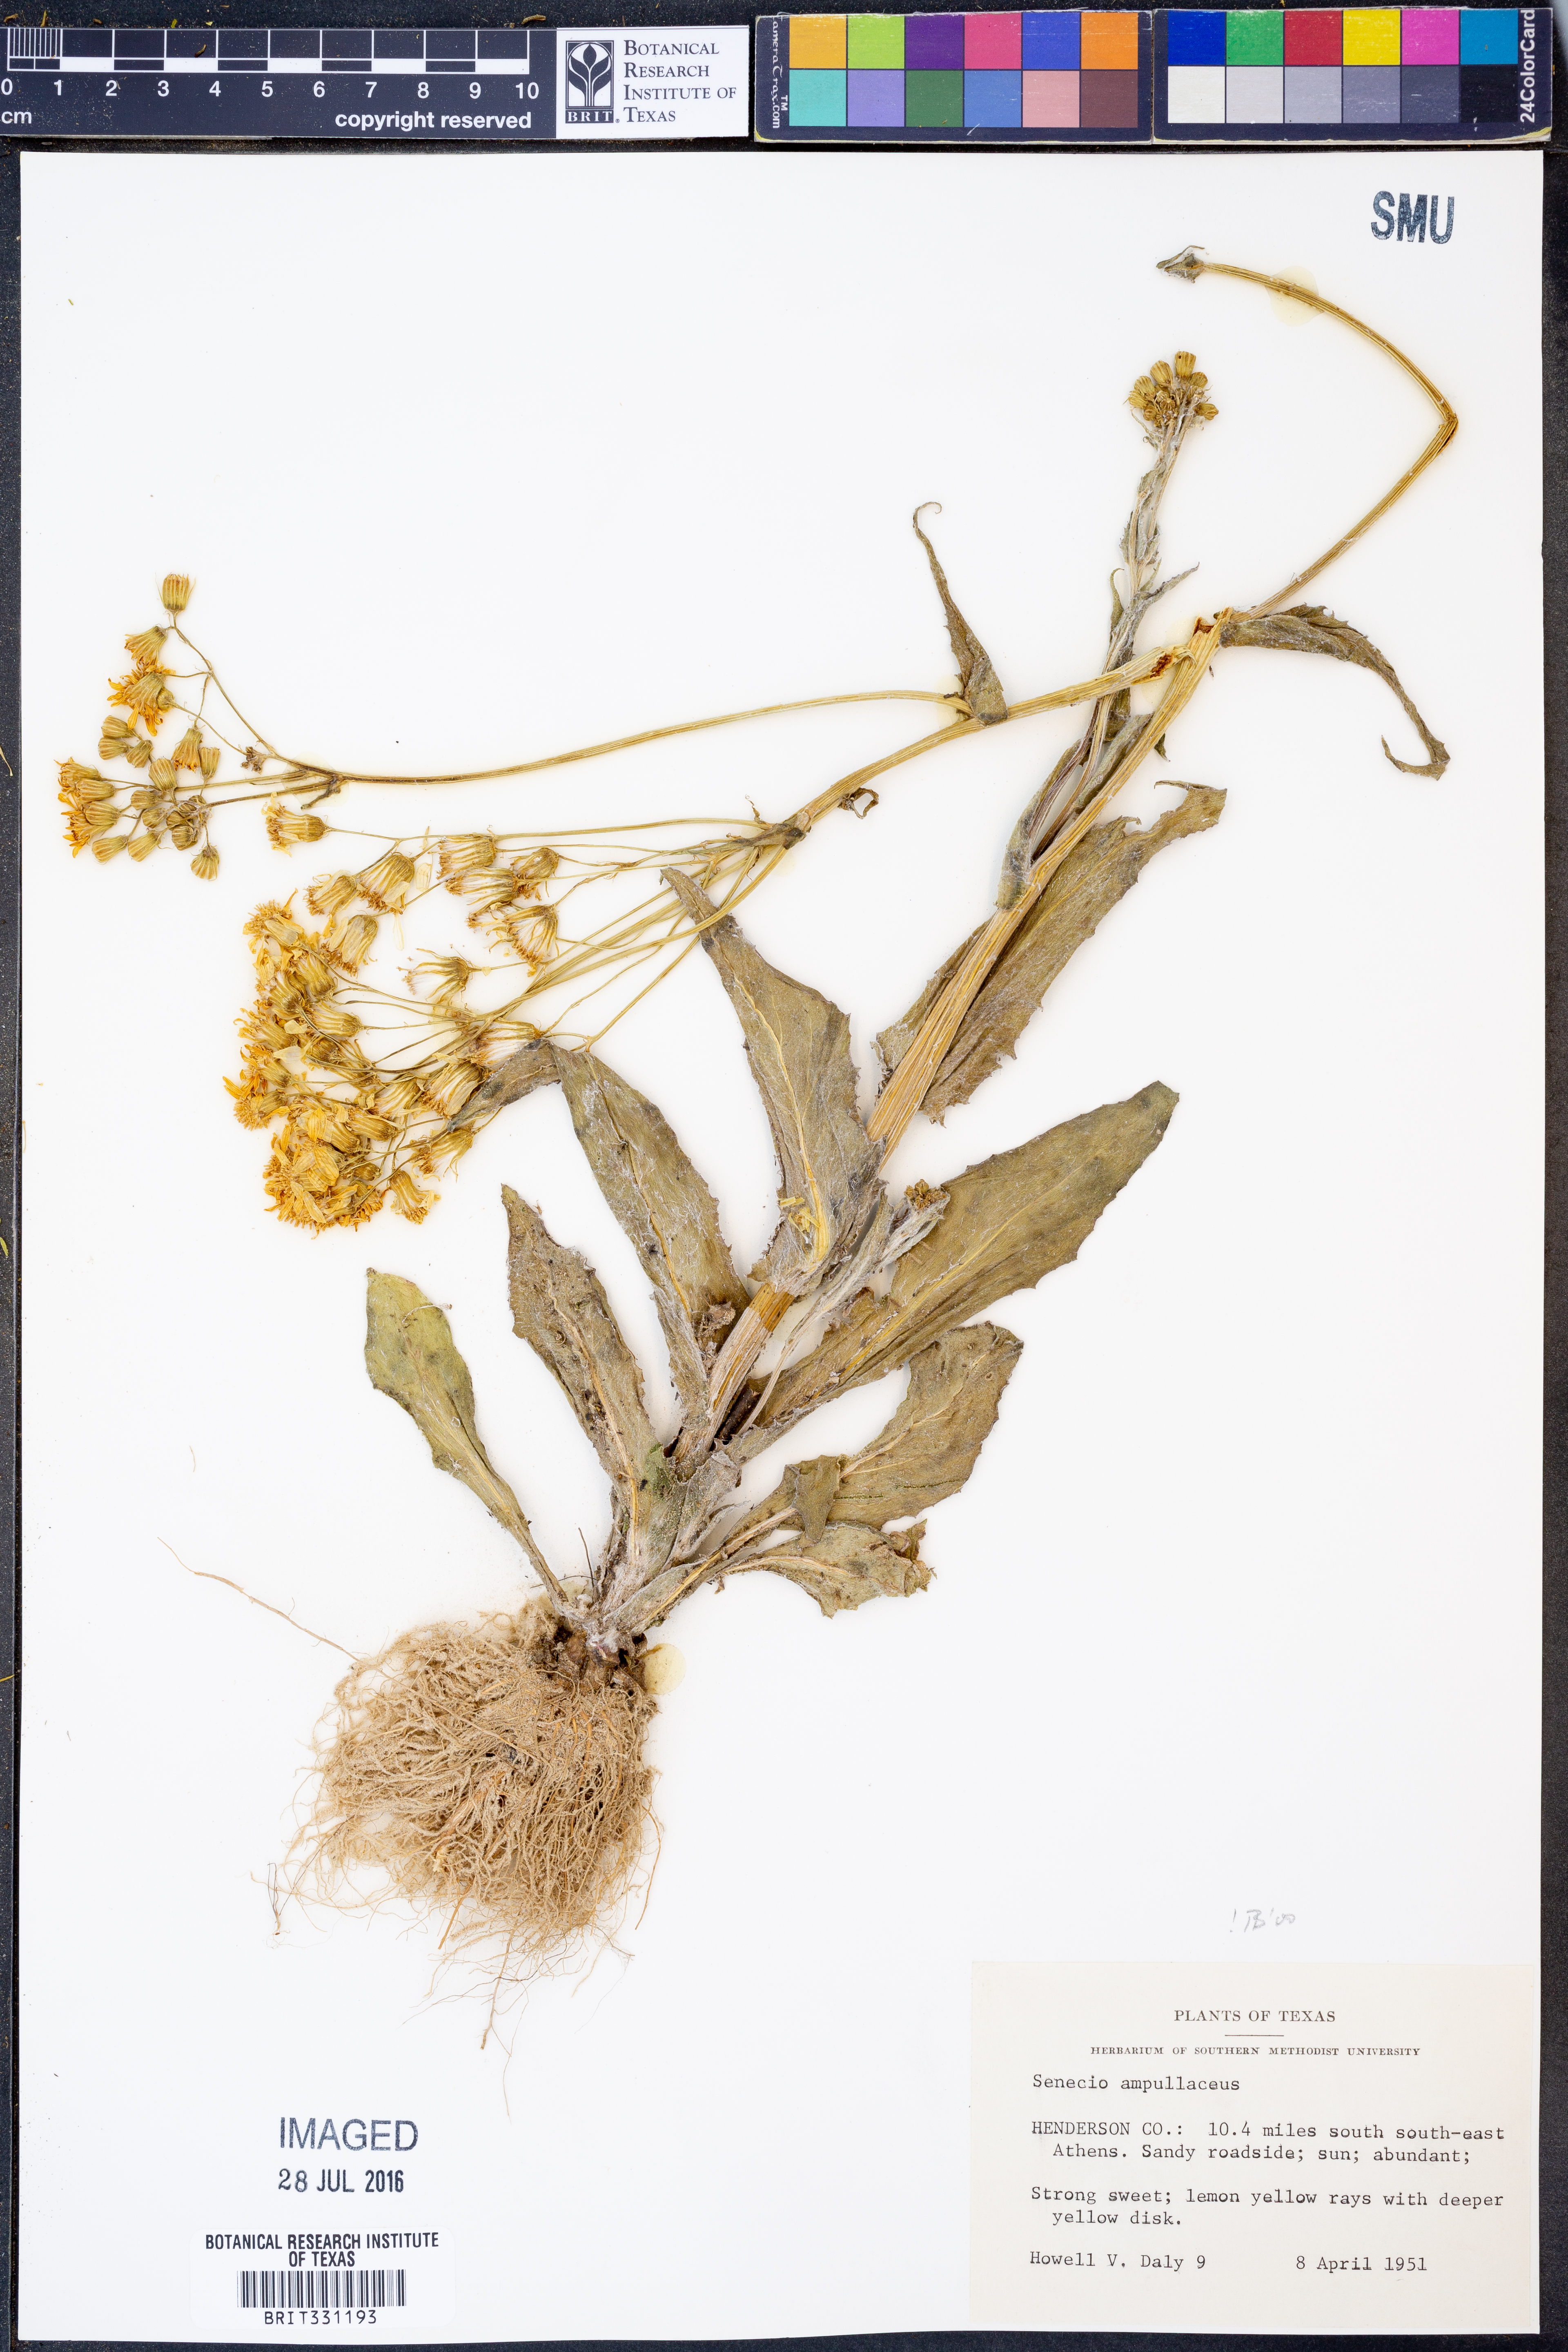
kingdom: Plantae
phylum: Tracheophyta
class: Magnoliopsida
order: Asterales
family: Asteraceae
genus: Senecio
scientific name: Senecio ampullaceus
